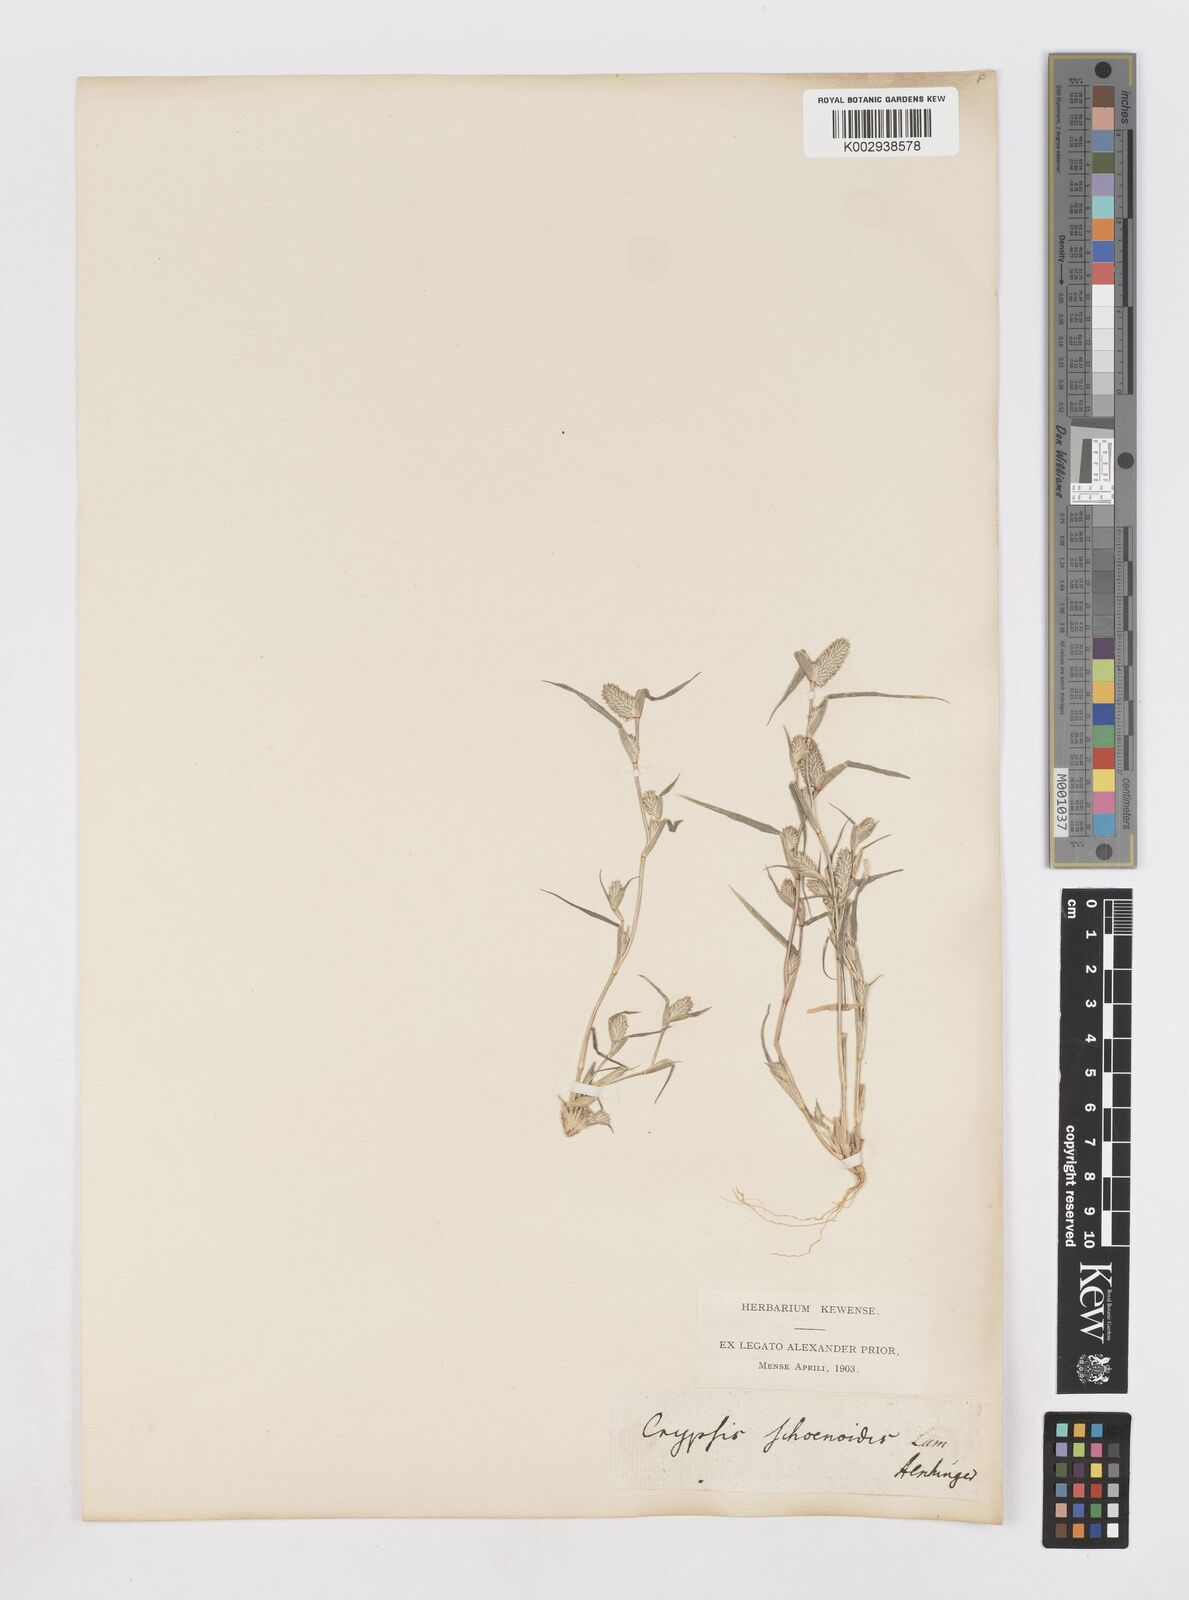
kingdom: Plantae
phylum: Tracheophyta
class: Liliopsida
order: Poales
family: Poaceae
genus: Sporobolus
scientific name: Sporobolus schoenoides
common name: Rush-like timothy
